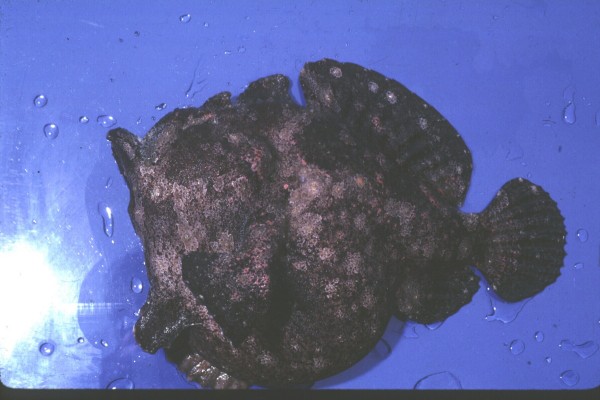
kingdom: Animalia
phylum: Chordata
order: Lophiiformes
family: Antennariidae
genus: Antennarius
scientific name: Antennarius
